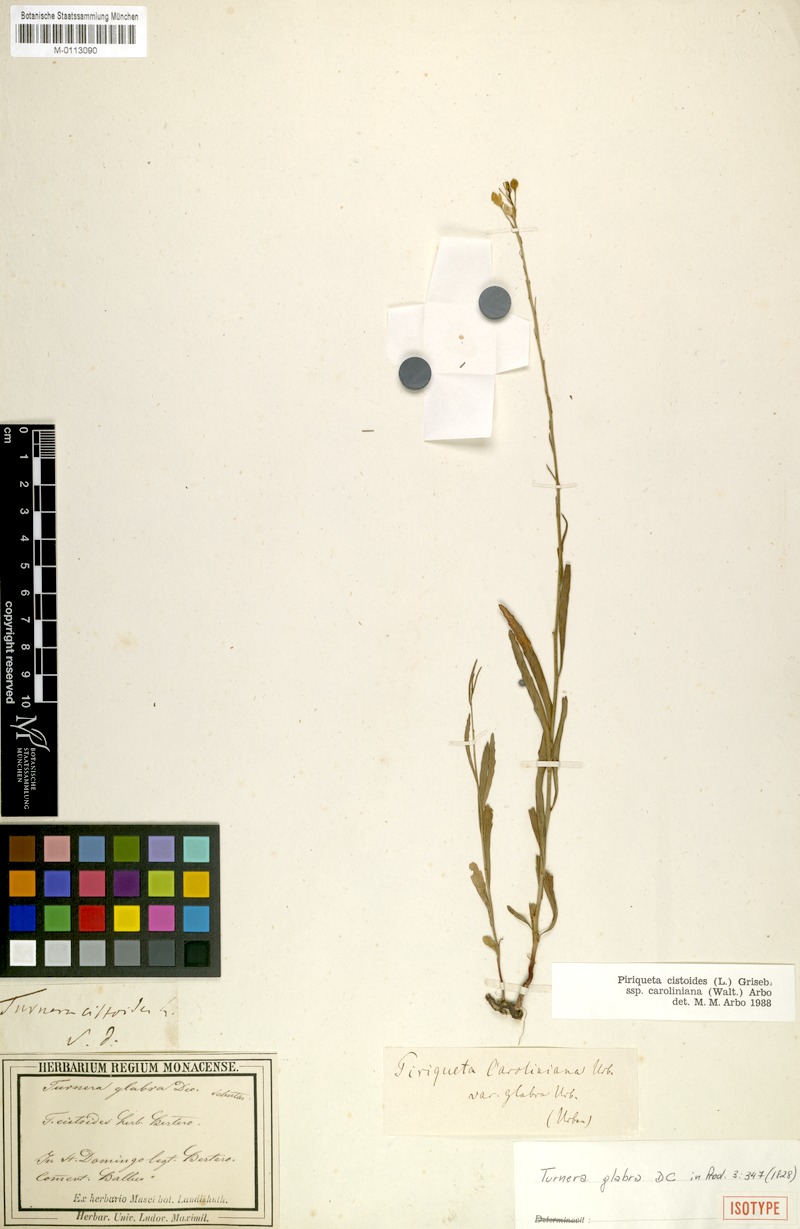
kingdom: Plantae
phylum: Tracheophyta
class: Magnoliopsida
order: Malpighiales
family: Turneraceae
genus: Piriqueta
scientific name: Piriqueta cistoides
